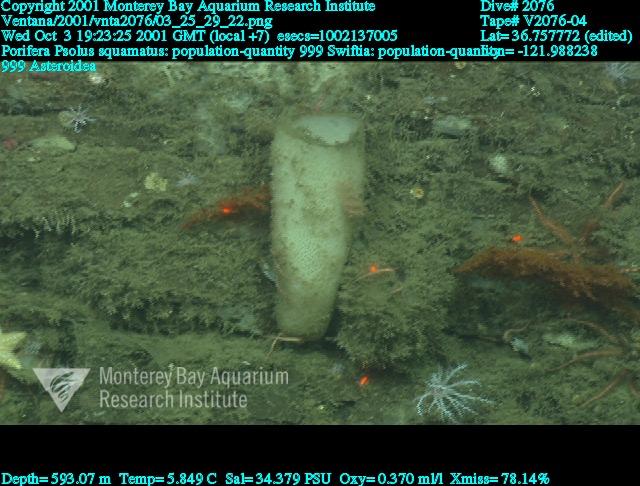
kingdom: Animalia
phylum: Porifera
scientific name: Porifera
